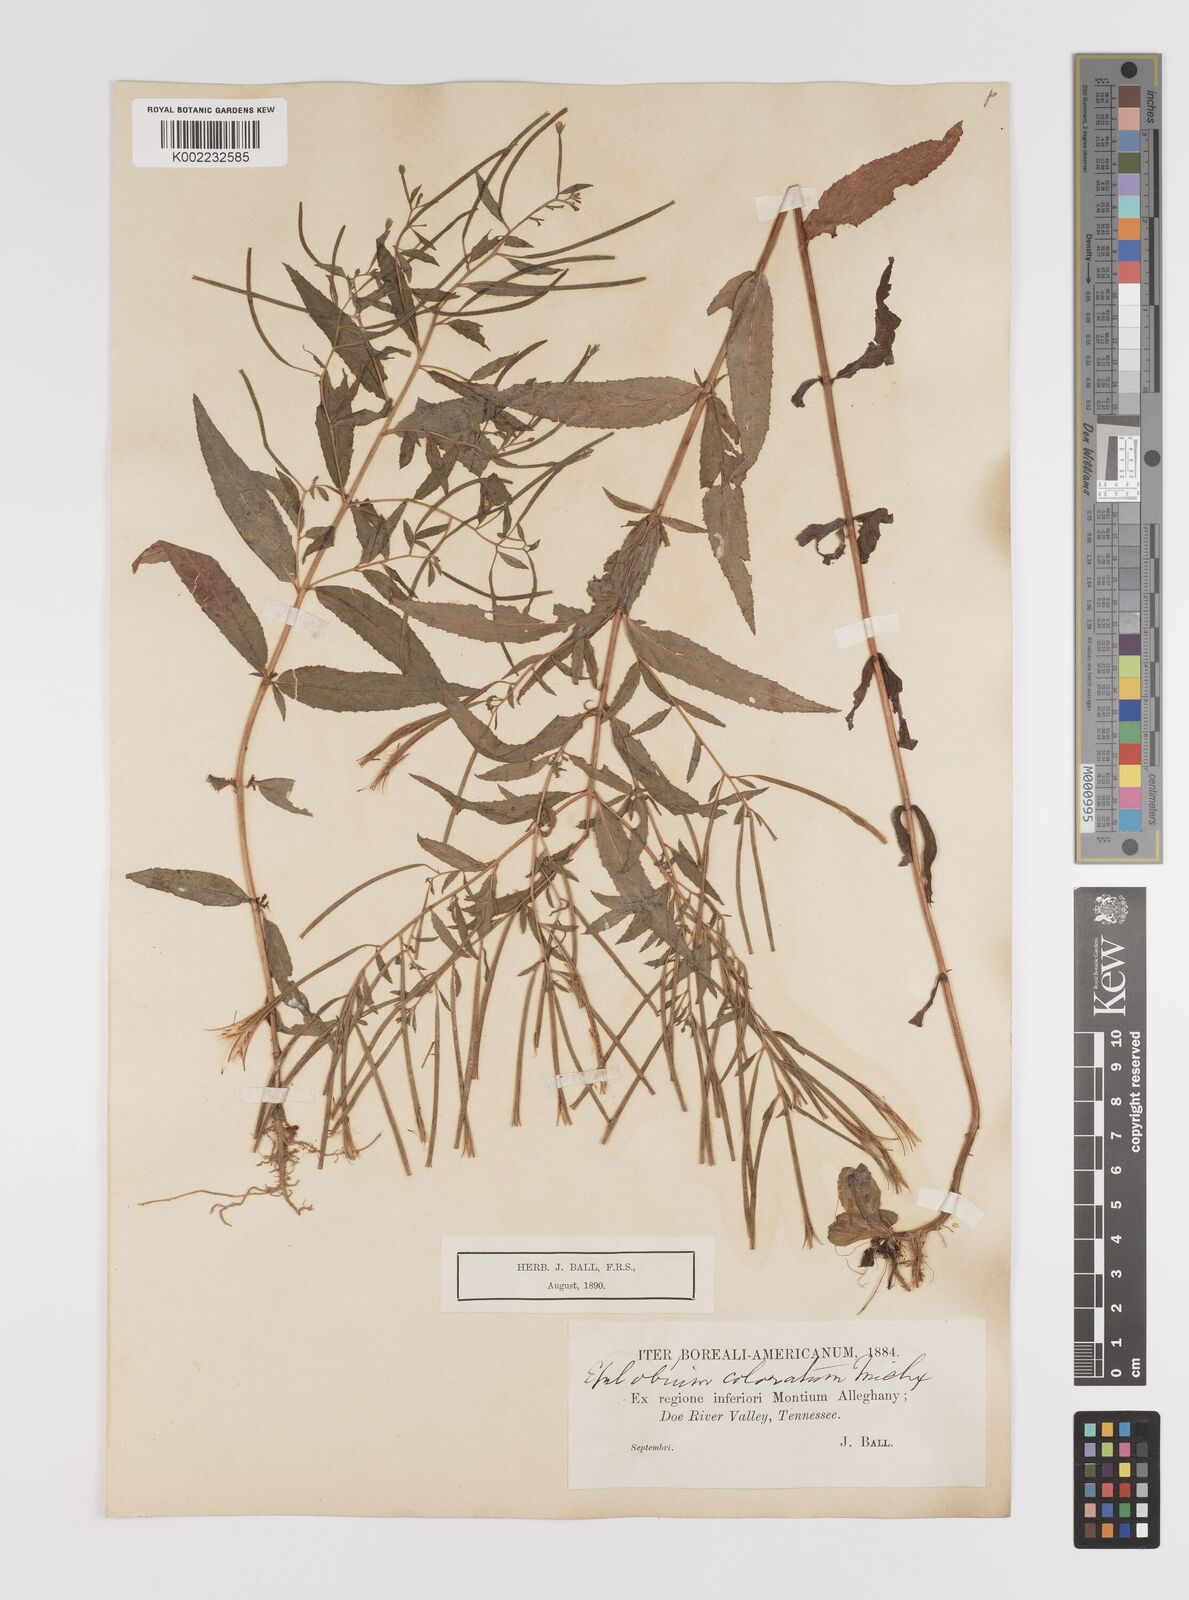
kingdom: Plantae
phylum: Tracheophyta
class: Magnoliopsida
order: Myrtales
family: Onagraceae
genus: Epilobium
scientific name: Epilobium coloratum
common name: Bronze willowherb
